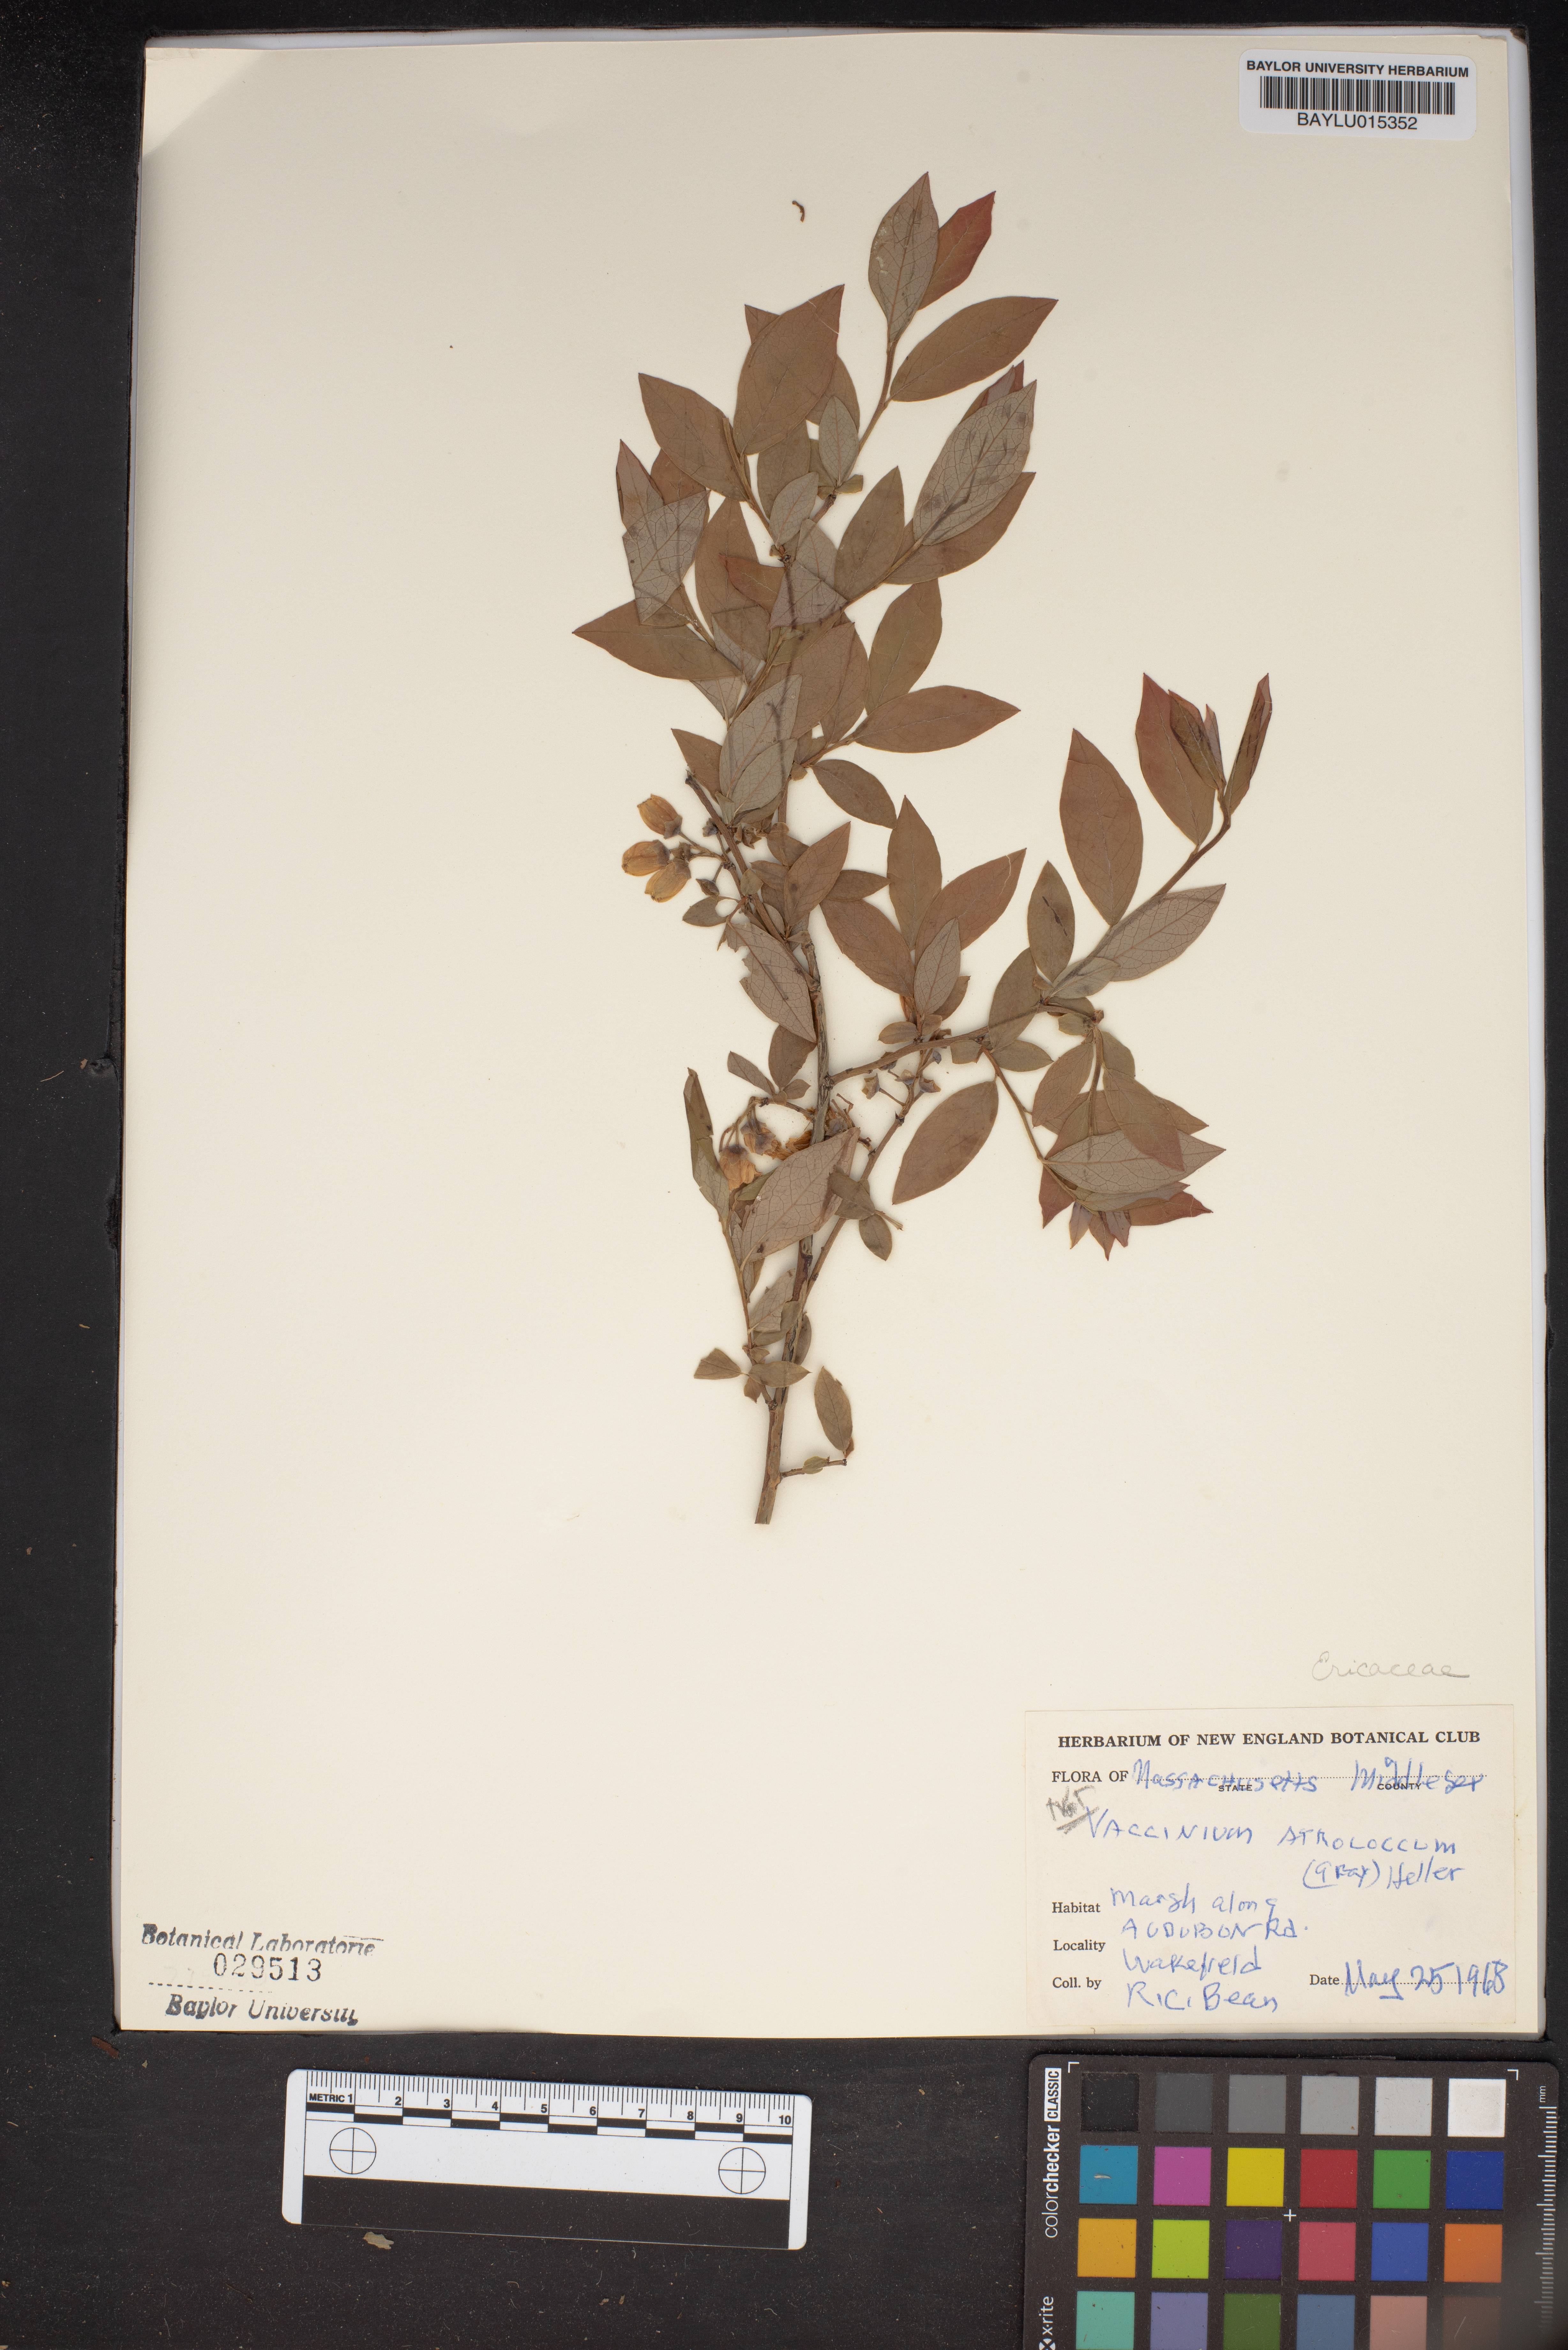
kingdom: Plantae
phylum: Tracheophyta
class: Magnoliopsida
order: Ericales
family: Ericaceae
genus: Vaccinium
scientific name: Vaccinium corymbosum
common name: Blueberry
